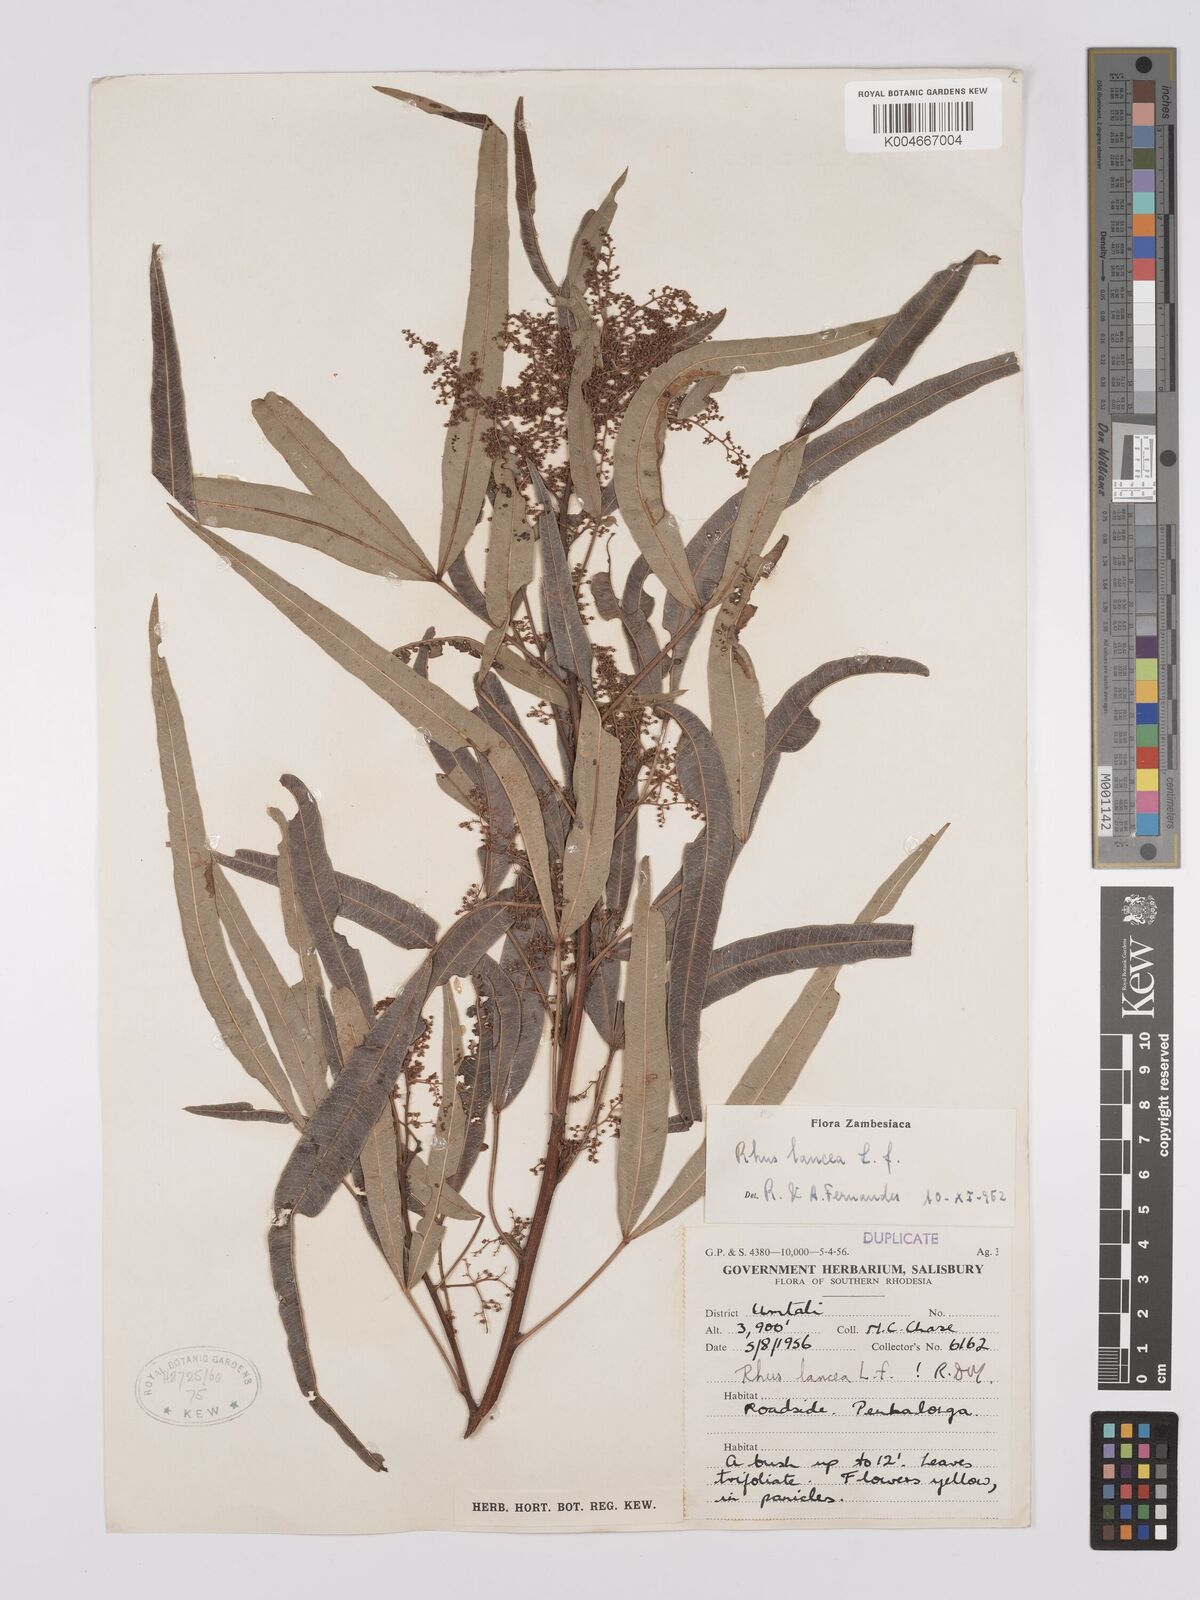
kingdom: Plantae
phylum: Tracheophyta
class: Magnoliopsida
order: Sapindales
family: Anacardiaceae
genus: Searsia
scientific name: Searsia lancea
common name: Cashew
